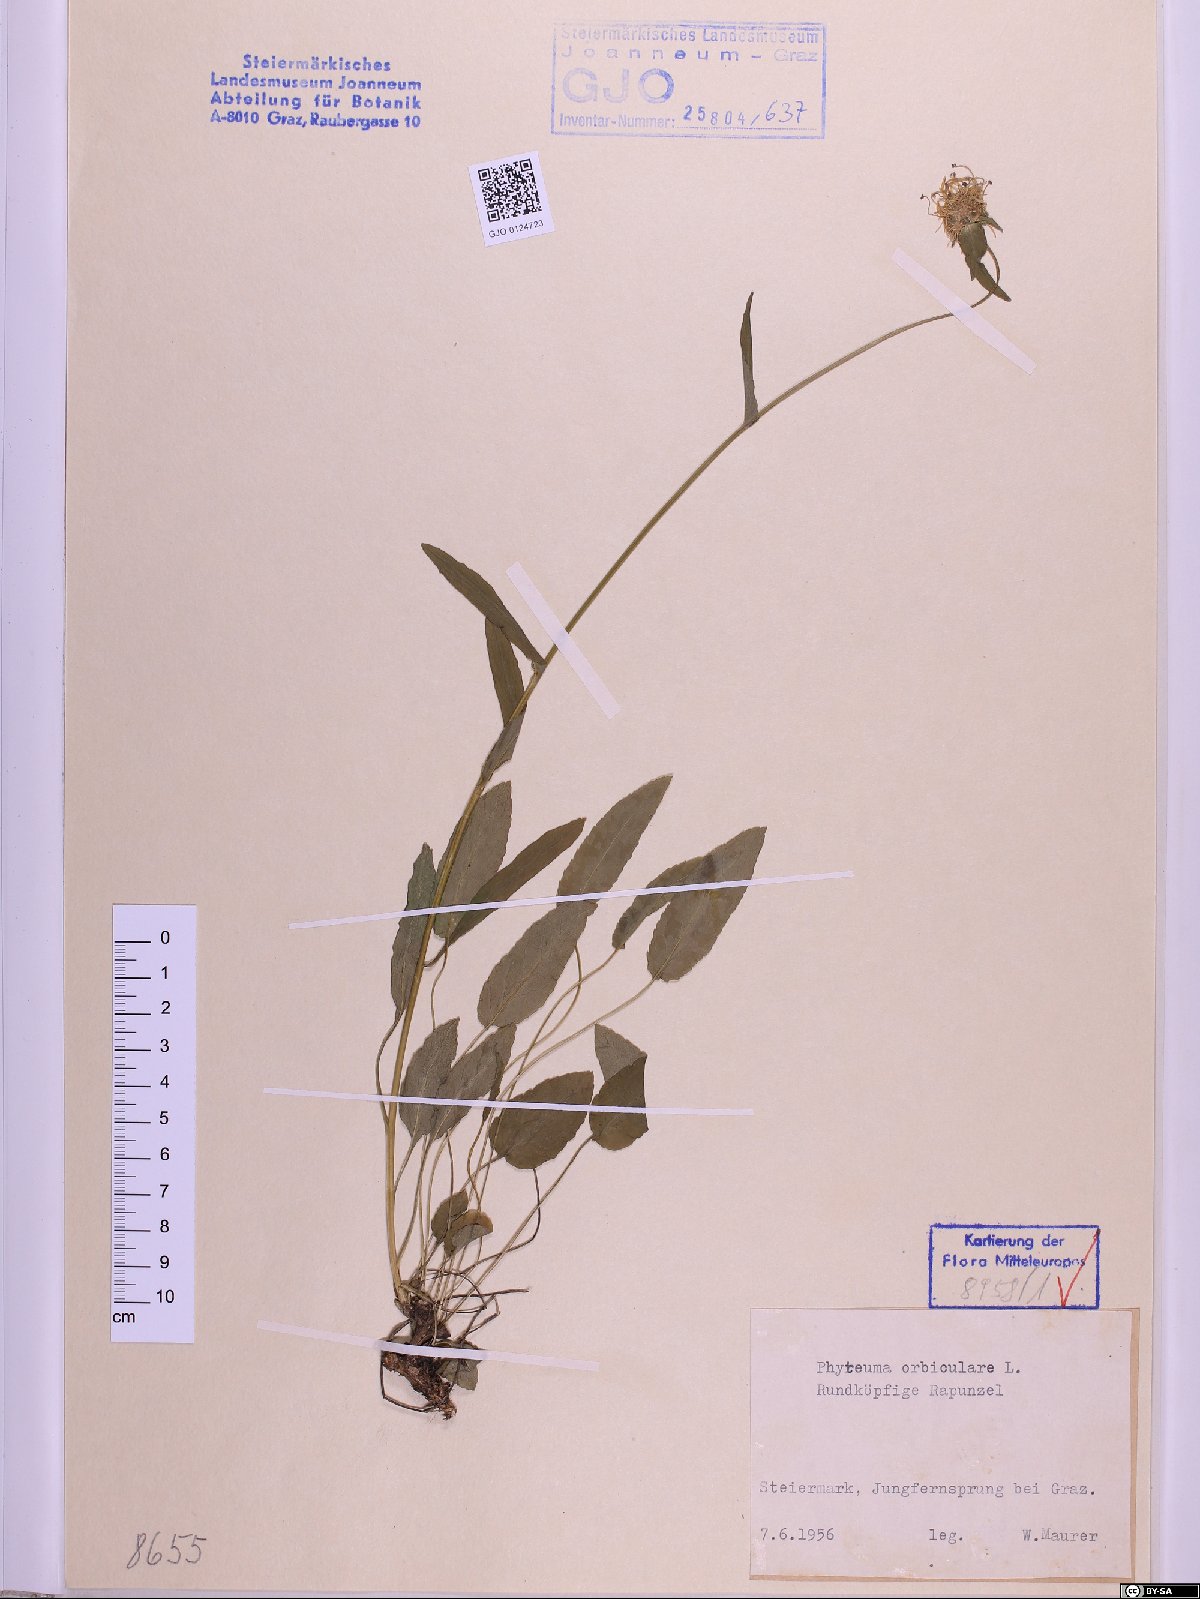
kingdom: Plantae
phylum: Tracheophyta
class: Magnoliopsida
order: Asterales
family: Campanulaceae
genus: Phyteuma
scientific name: Phyteuma orbiculare
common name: Round-headed rampion
